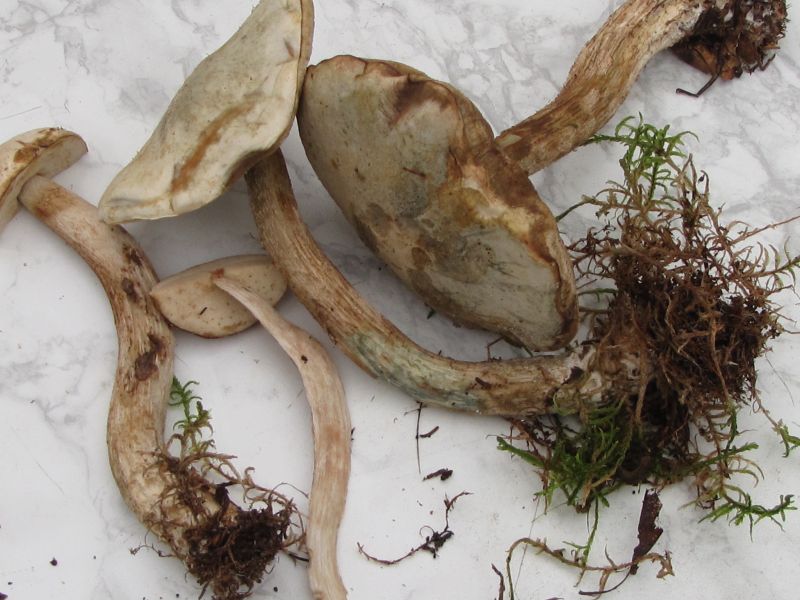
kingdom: Fungi
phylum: Basidiomycota
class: Agaricomycetes
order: Boletales
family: Boletaceae
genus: Leccinum
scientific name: Leccinum scabrum
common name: hvid skælrørhat
